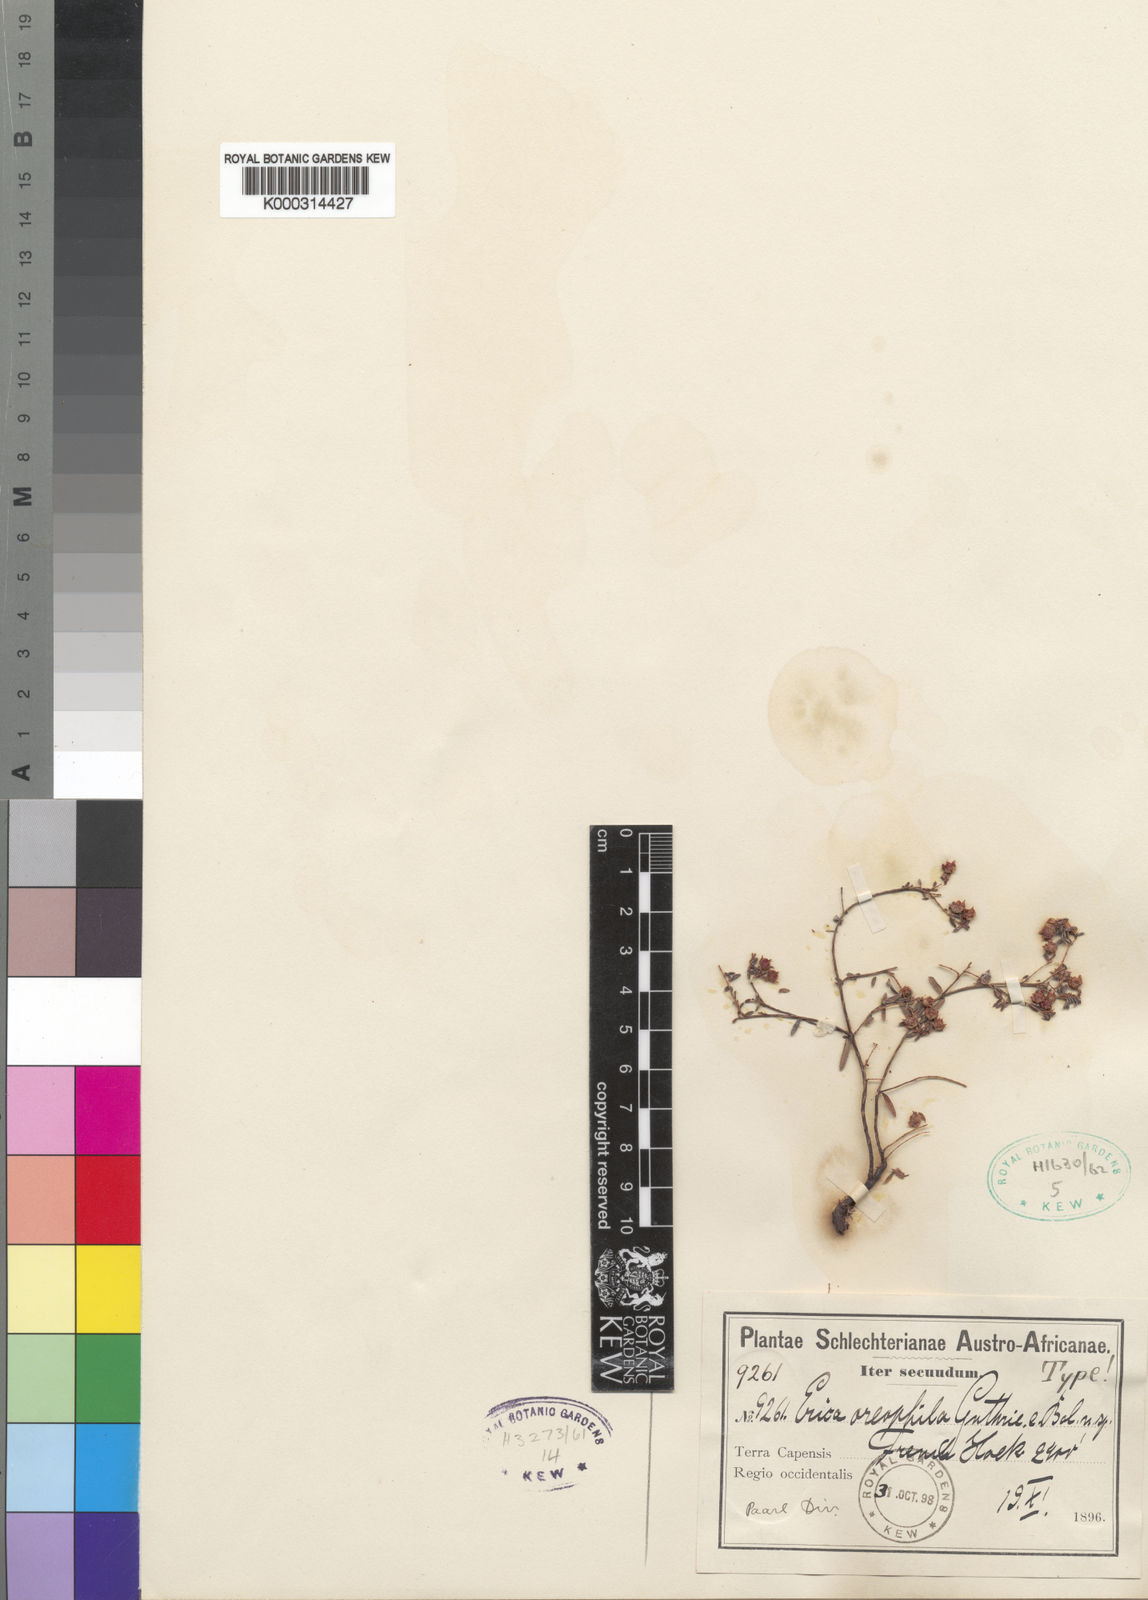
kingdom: Plantae
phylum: Tracheophyta
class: Magnoliopsida
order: Ericales
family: Ericaceae
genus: Erica
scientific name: Erica oreophila
